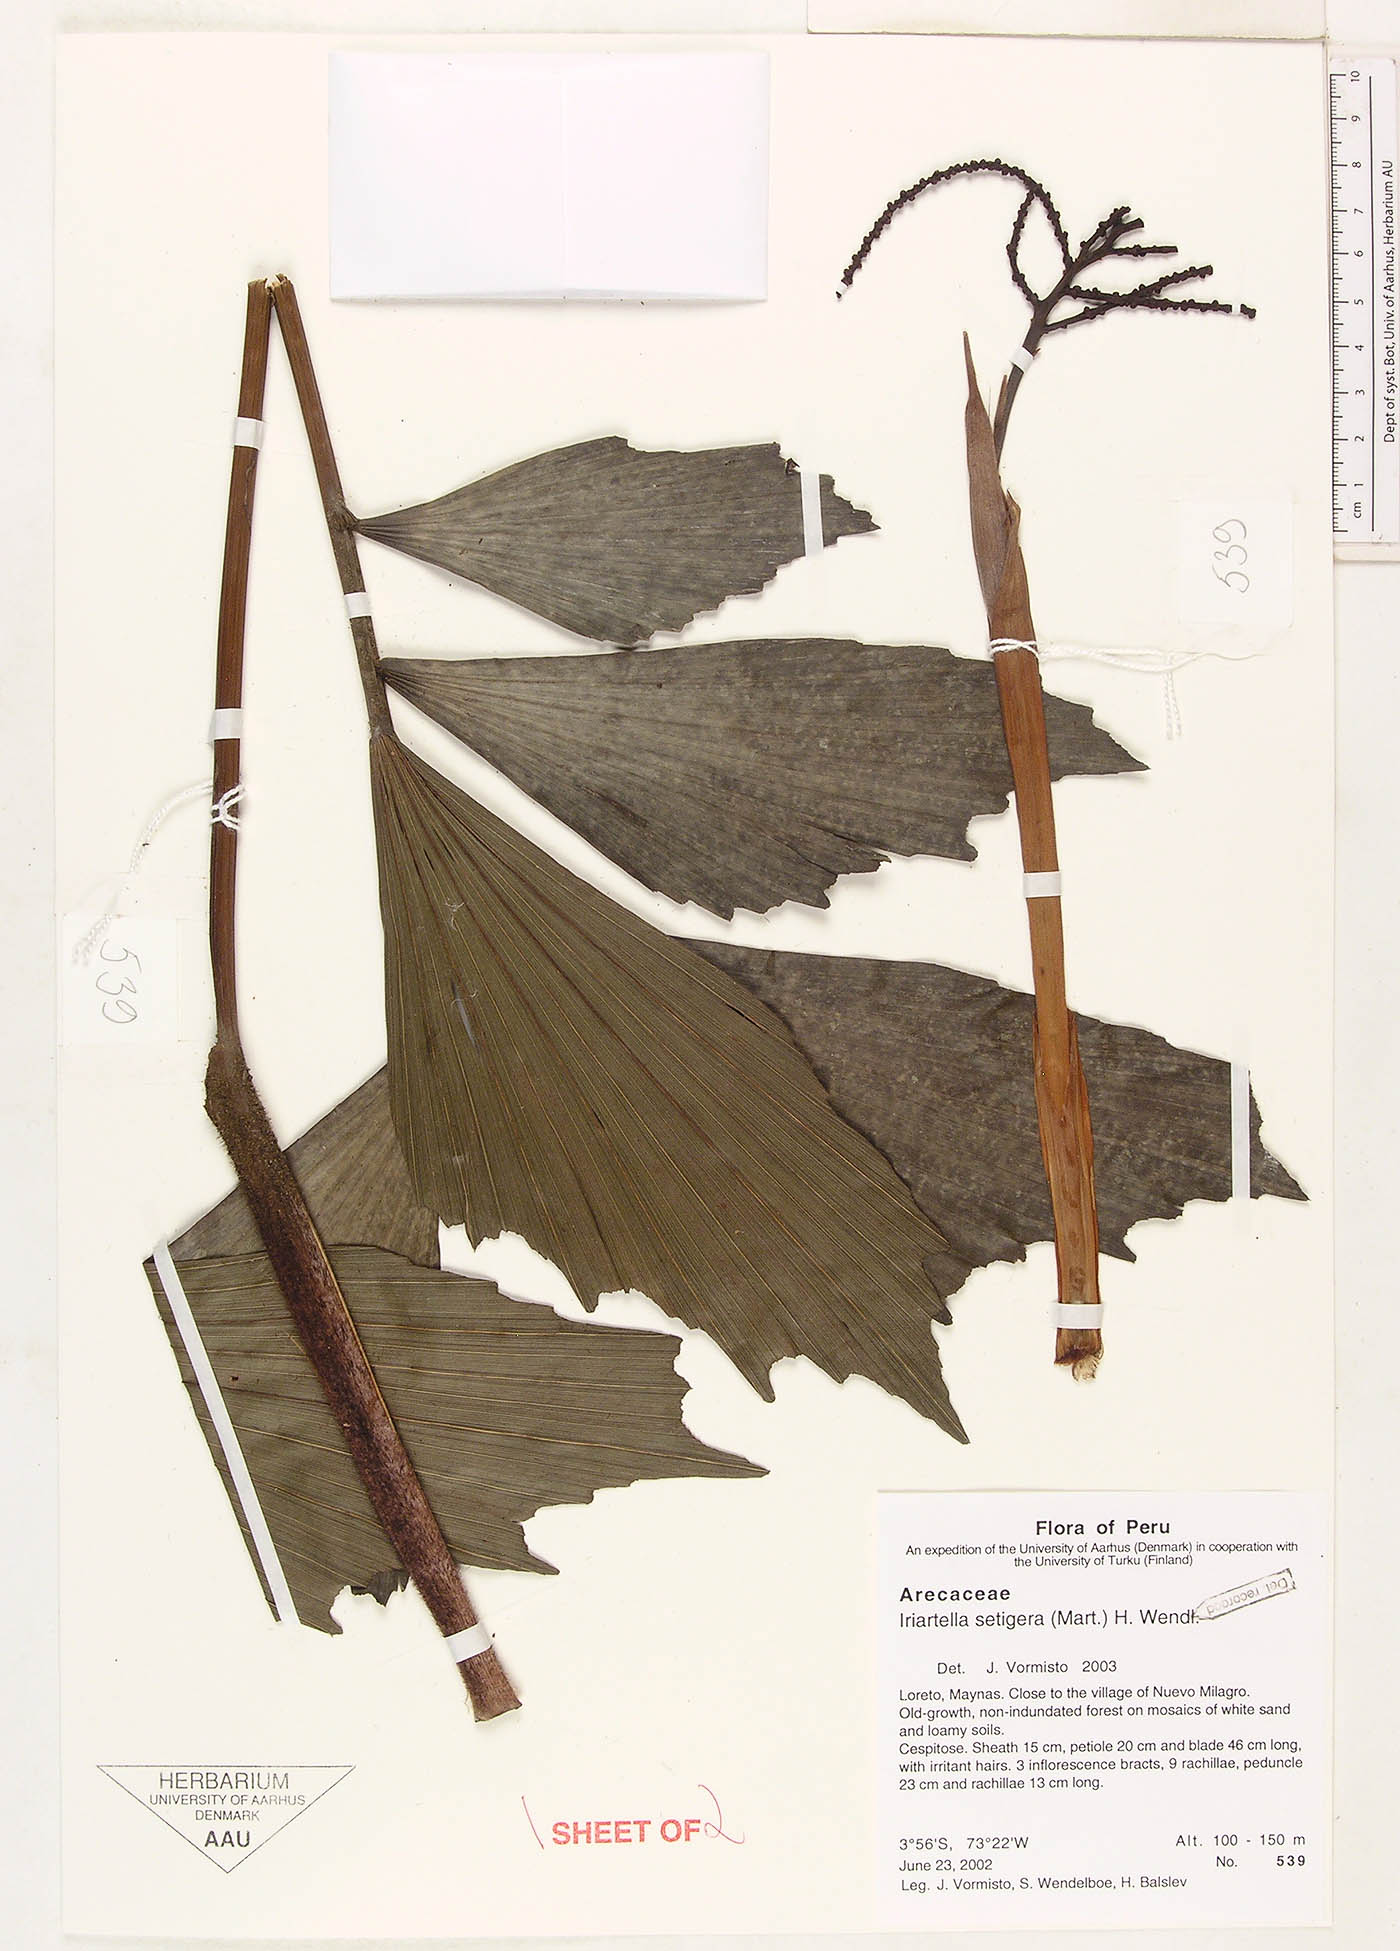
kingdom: Plantae
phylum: Tracheophyta
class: Liliopsida
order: Arecales
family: Arecaceae
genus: Iriartella
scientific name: Iriartella setigera
